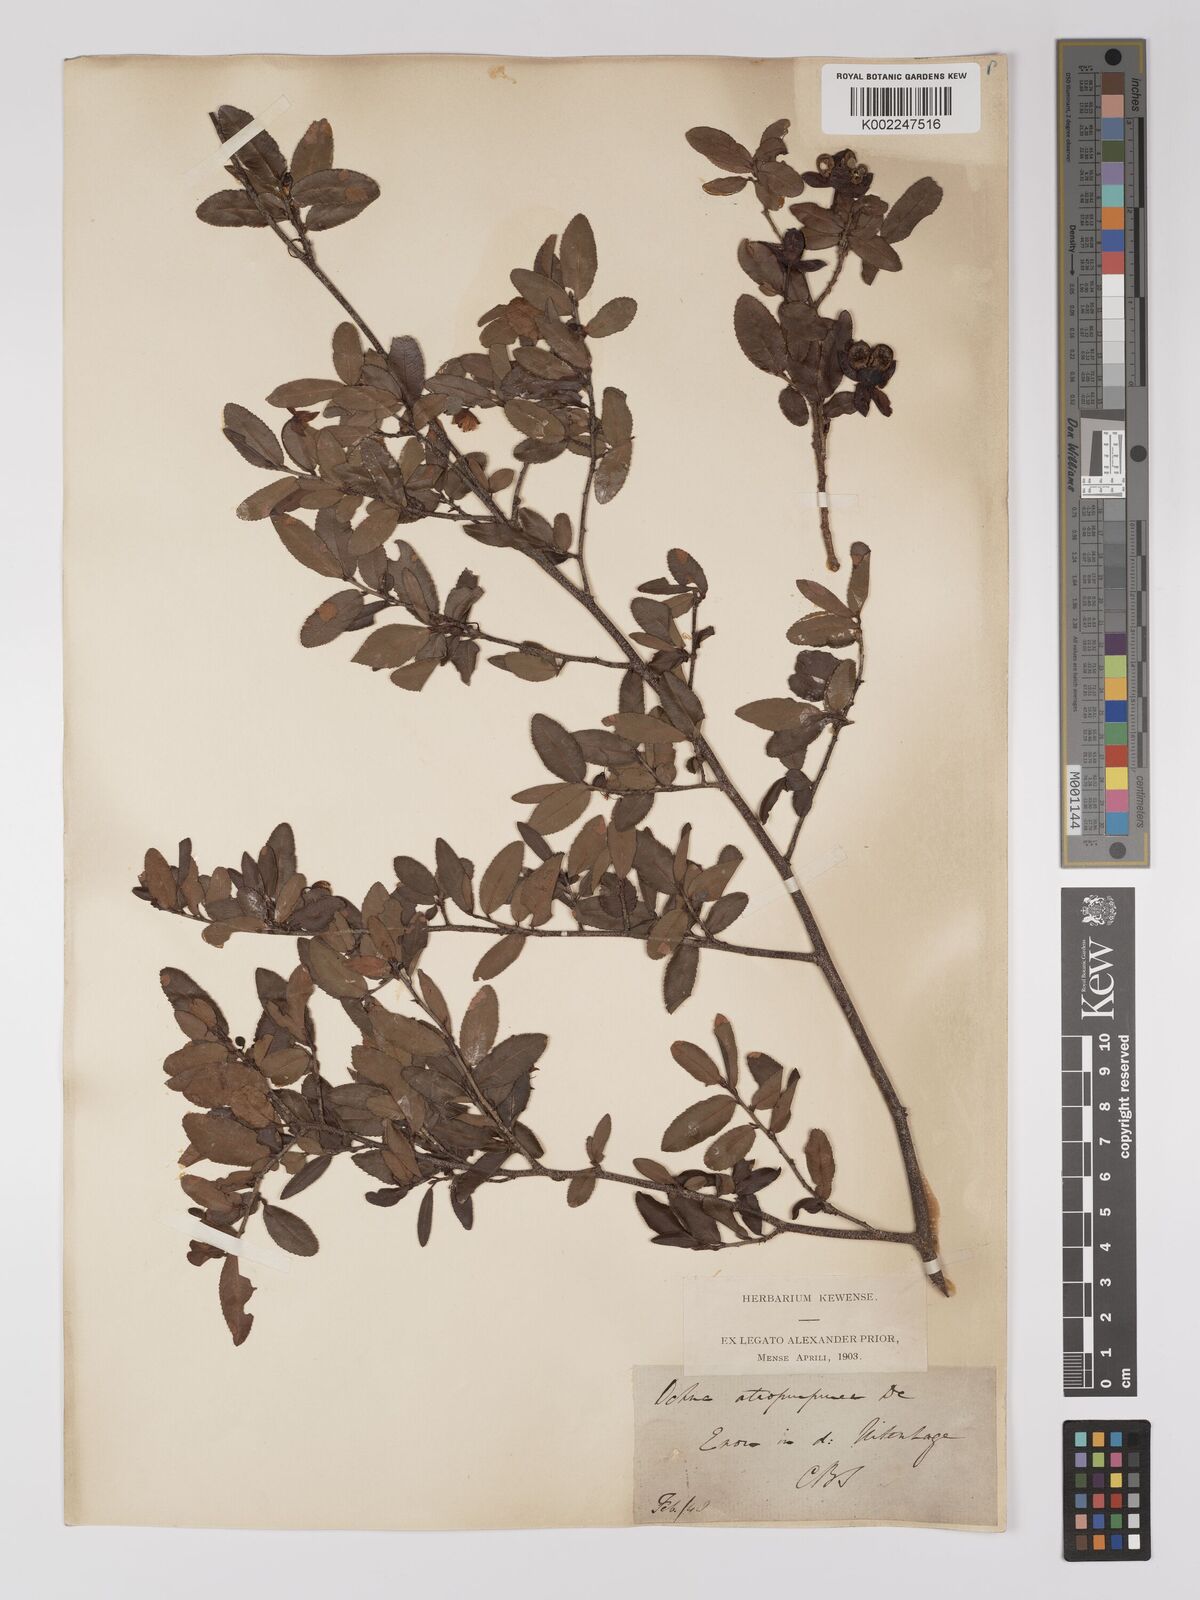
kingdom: Plantae
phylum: Tracheophyta
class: Magnoliopsida
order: Malpighiales
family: Ochnaceae
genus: Ochna
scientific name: Ochna serrulata
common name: Mickey mouse plant
